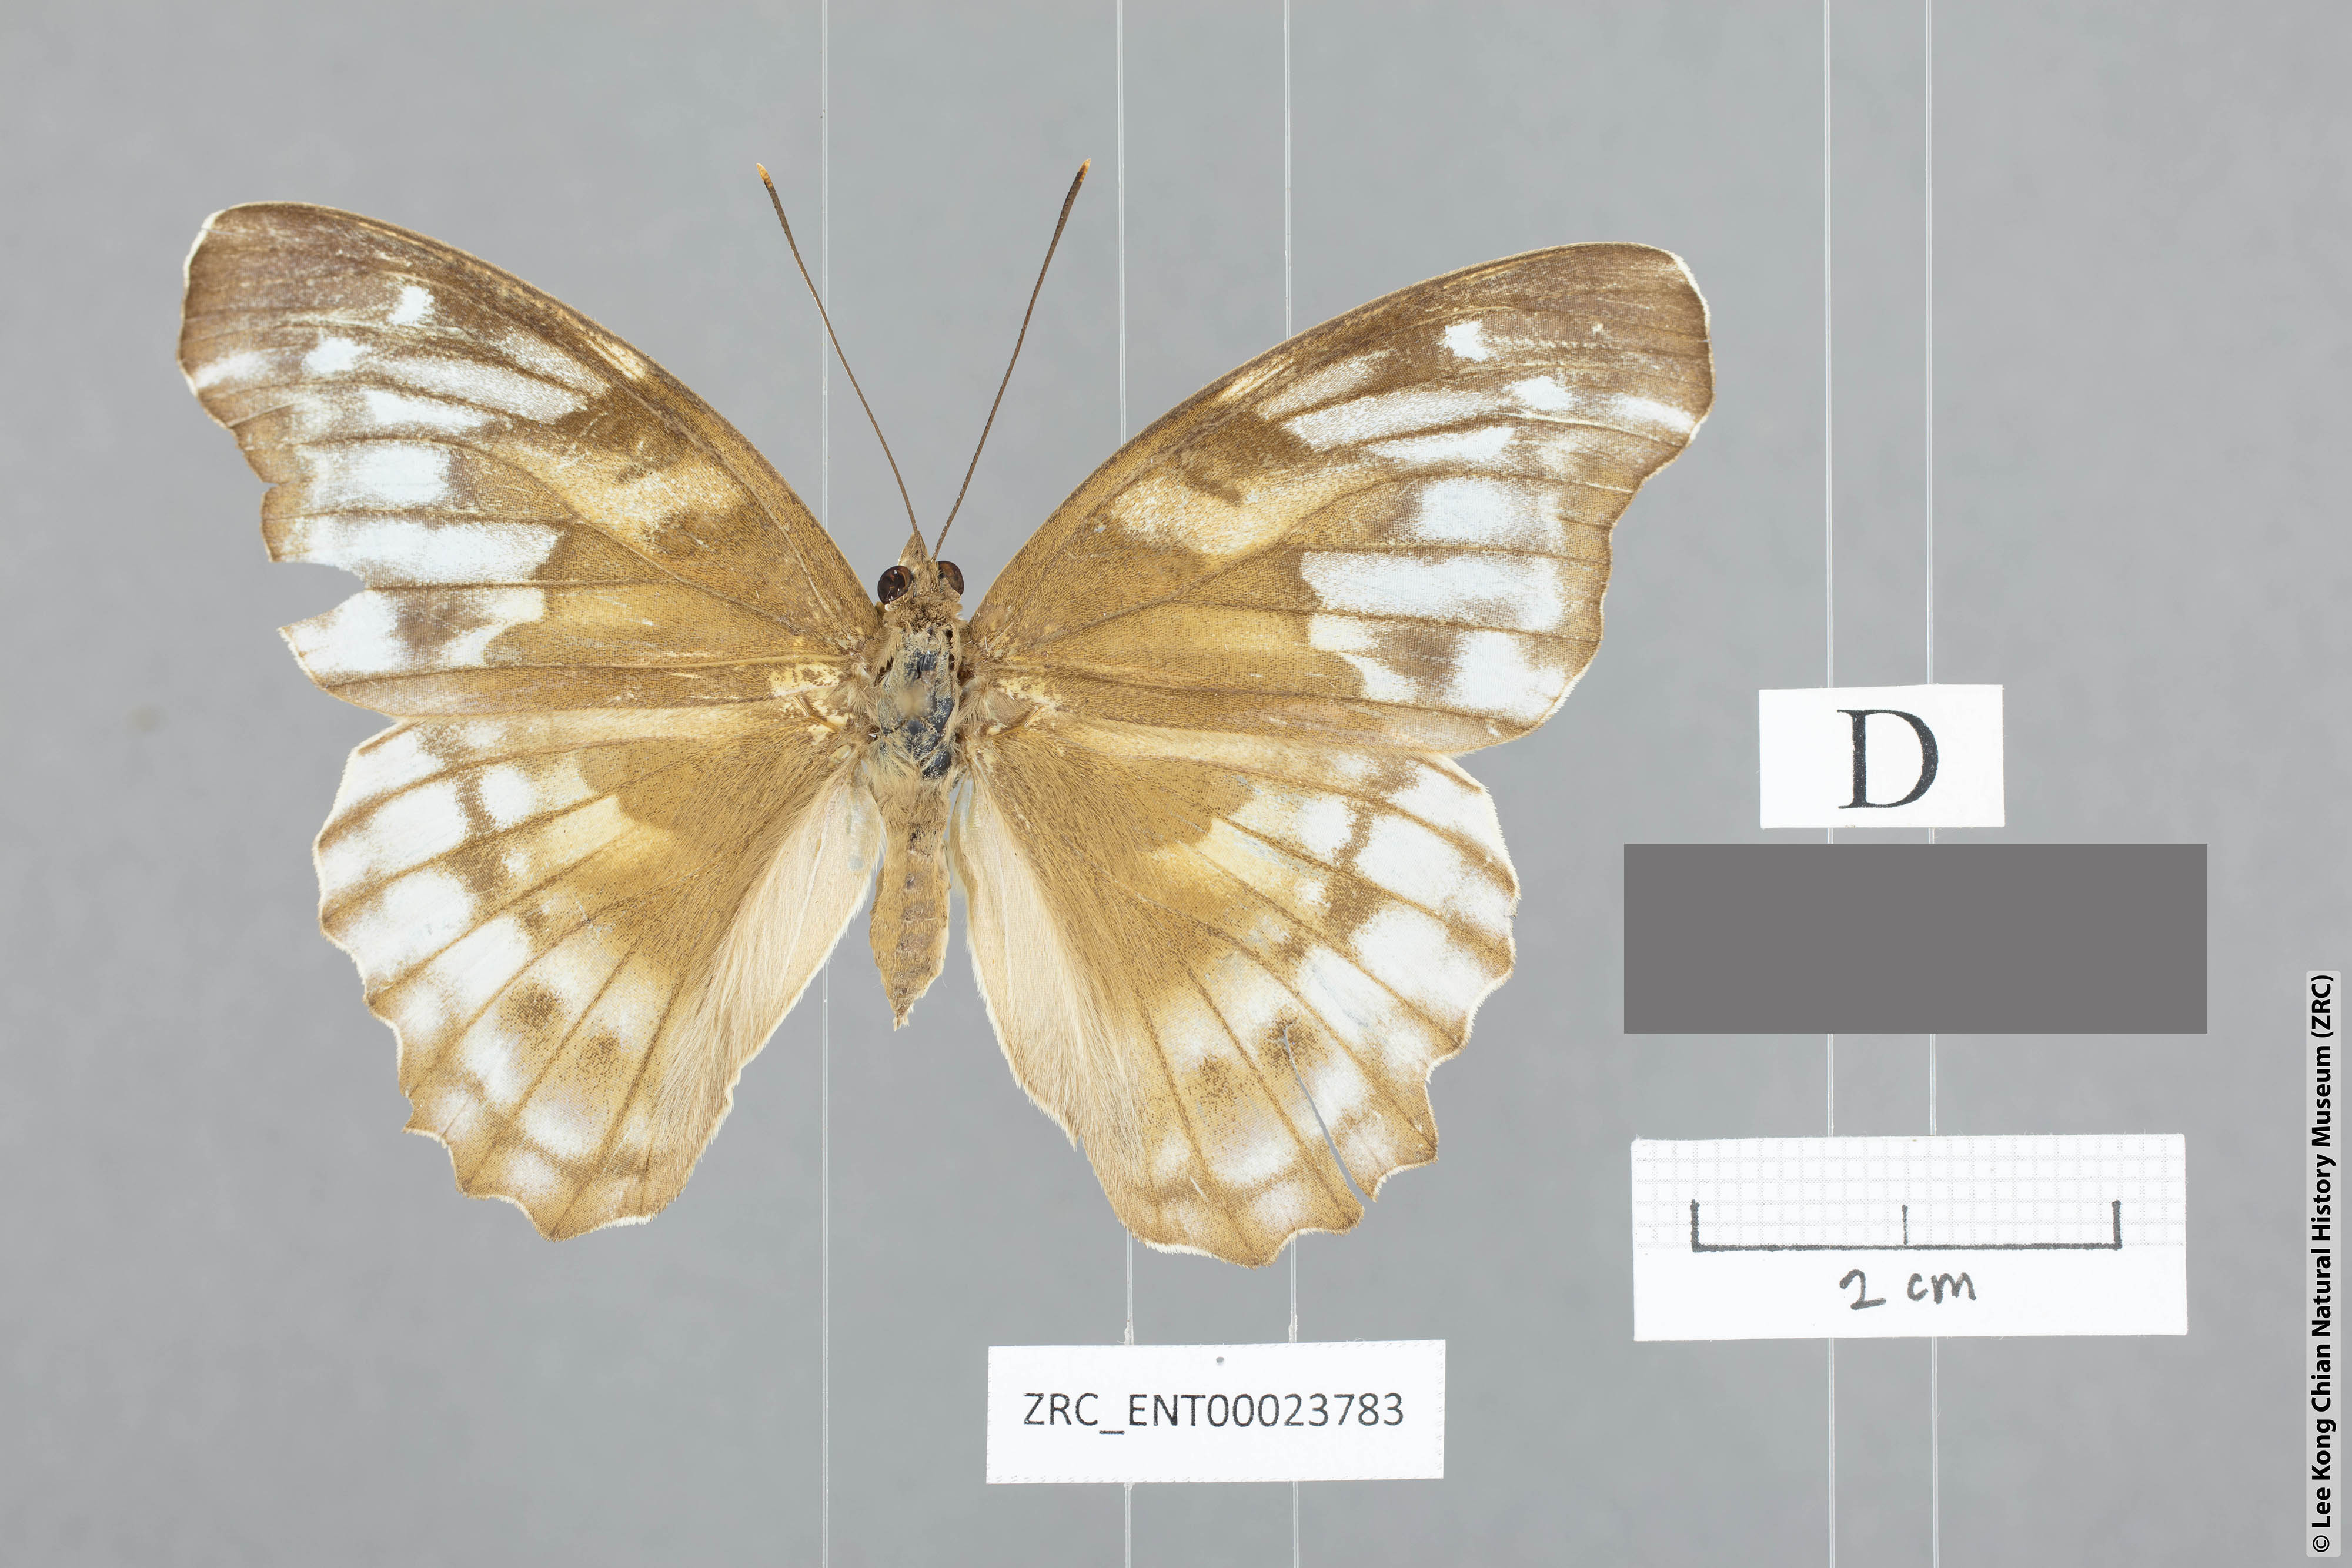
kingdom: Animalia
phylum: Arthropoda
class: Insecta
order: Lepidoptera
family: Nymphalidae
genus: Herona
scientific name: Herona sumatrana
